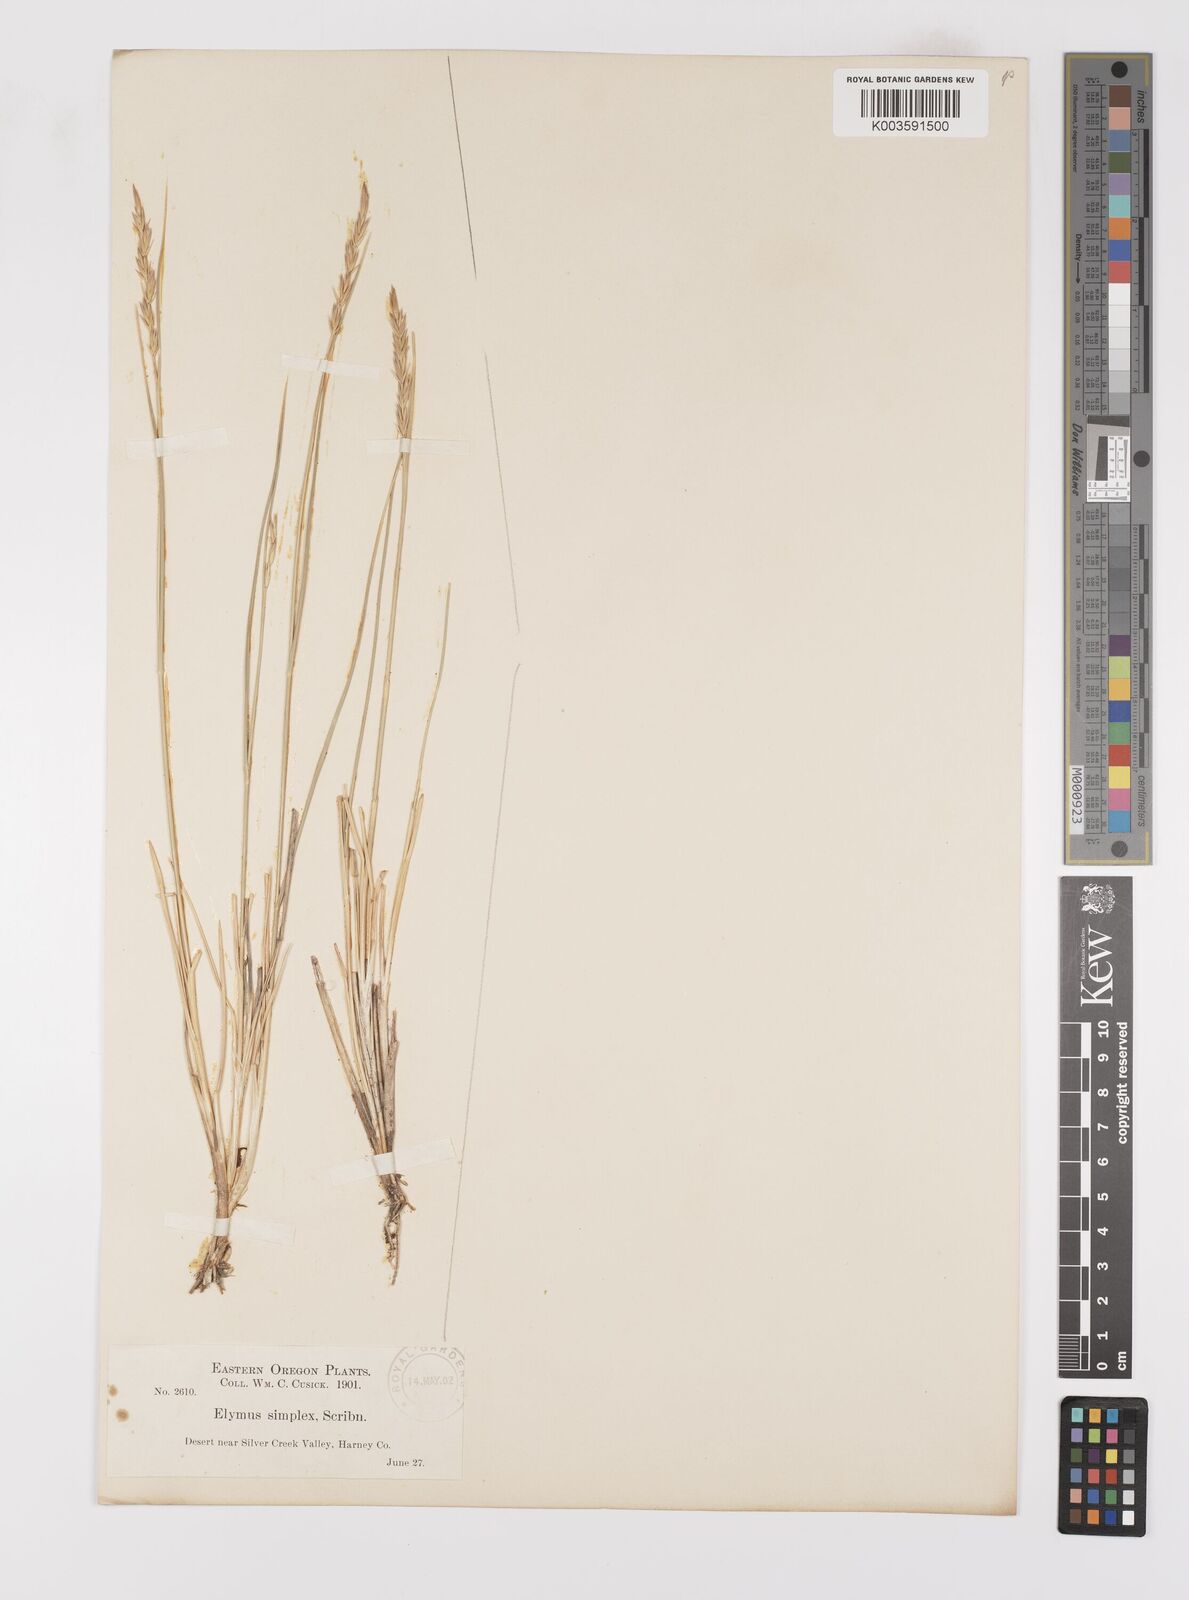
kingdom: Plantae
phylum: Tracheophyta
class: Liliopsida
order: Poales
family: Poaceae
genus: Leymus
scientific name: Leymus triticoides
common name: Beardless wild rye
